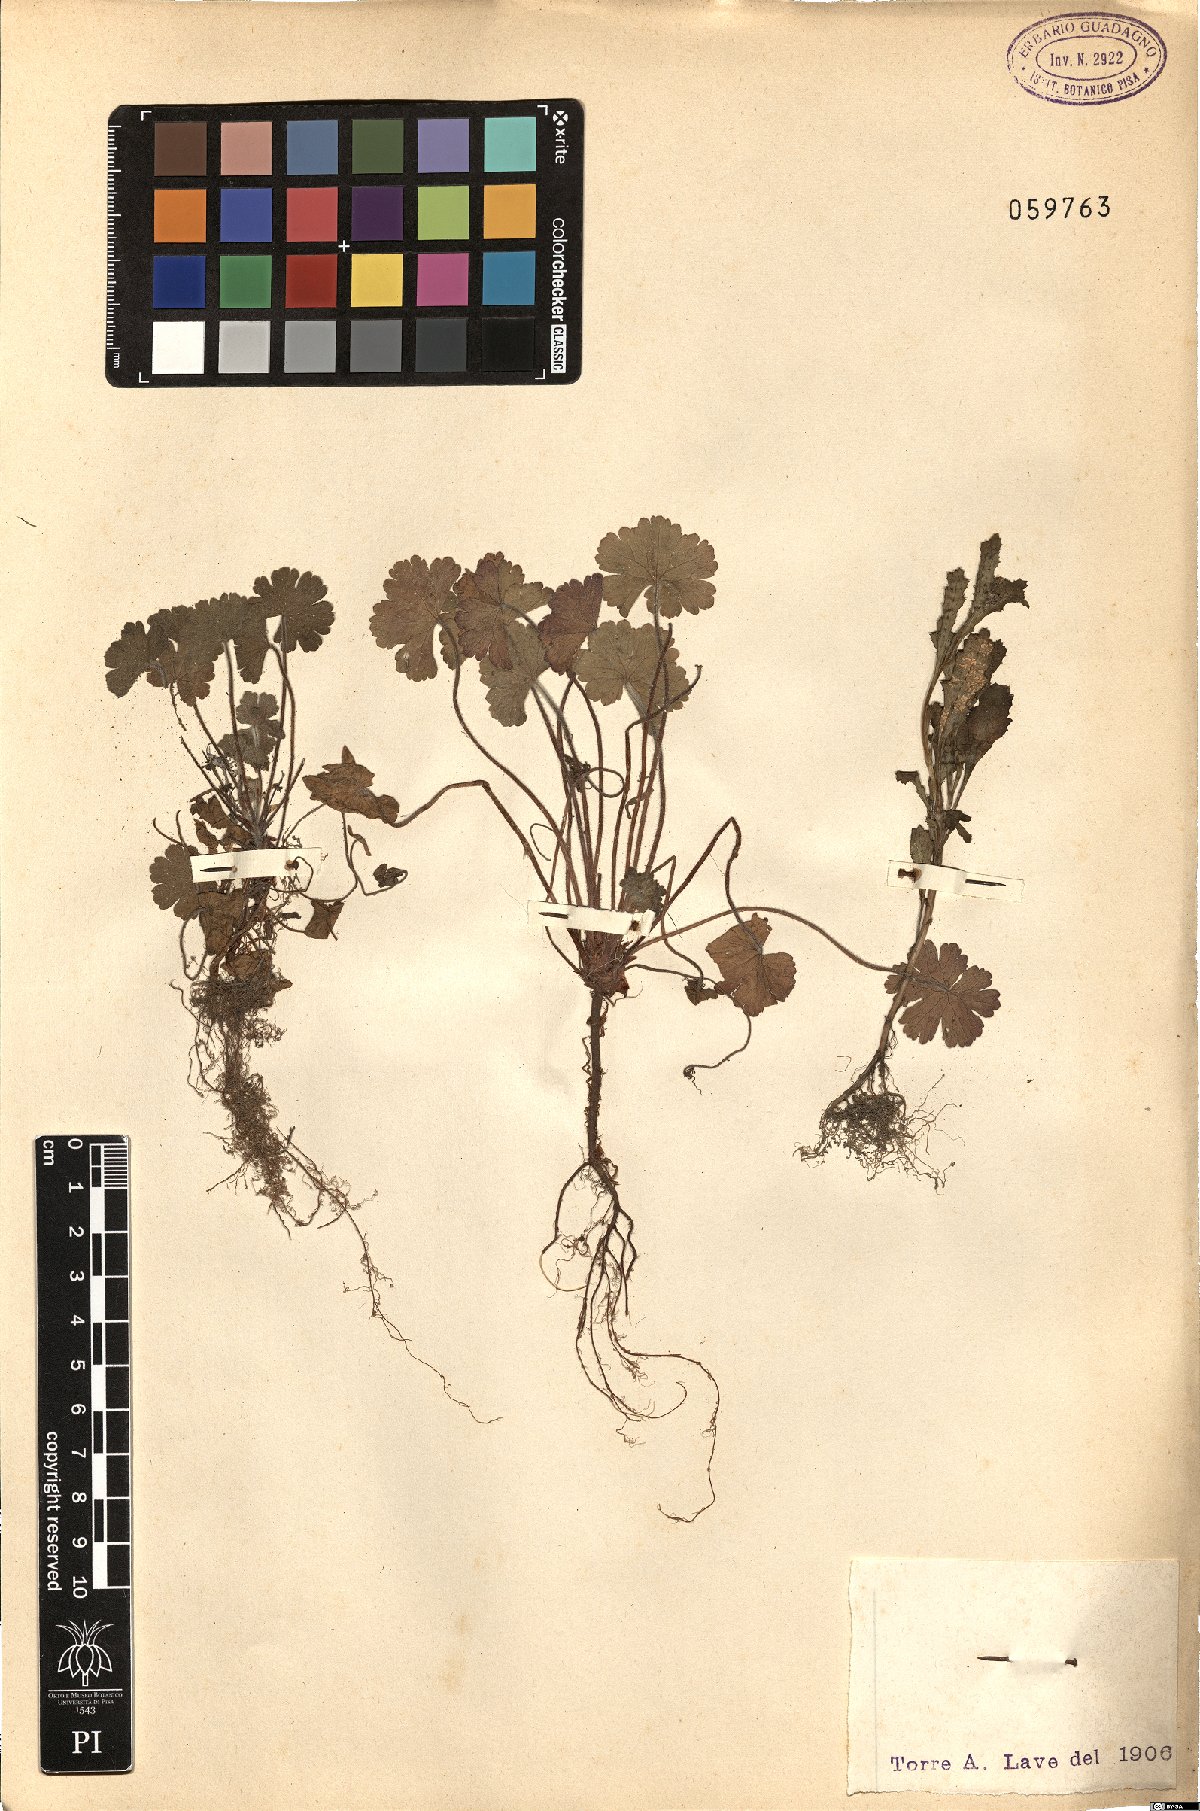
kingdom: Plantae
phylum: Tracheophyta
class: Magnoliopsida
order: Asterales
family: Asteraceae
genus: Senecio
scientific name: Senecio
